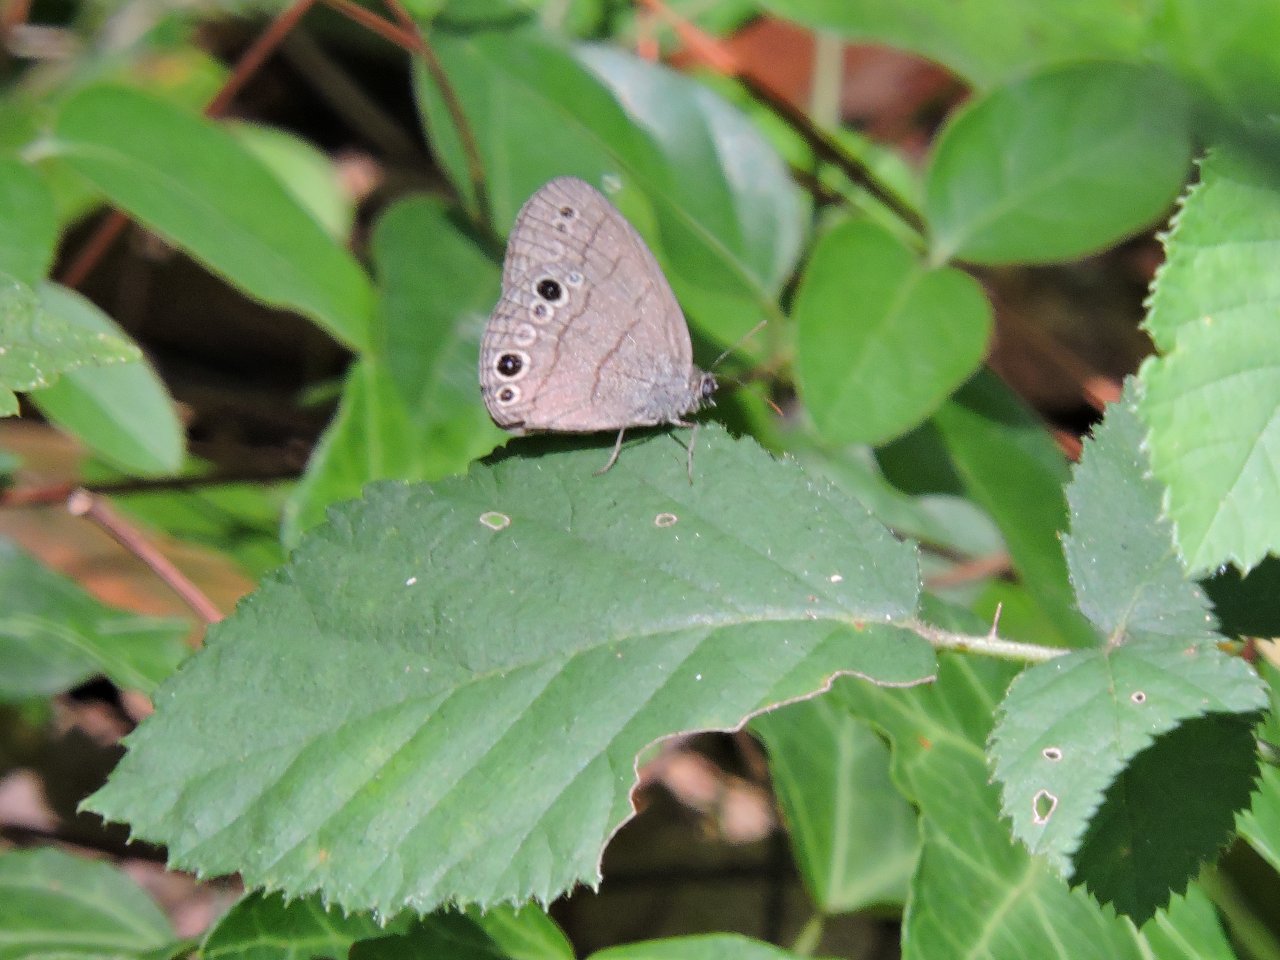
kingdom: Animalia
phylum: Arthropoda
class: Insecta
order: Lepidoptera
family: Nymphalidae
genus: Hermeuptychia
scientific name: Hermeuptychia hermes
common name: Carolina Satyr
